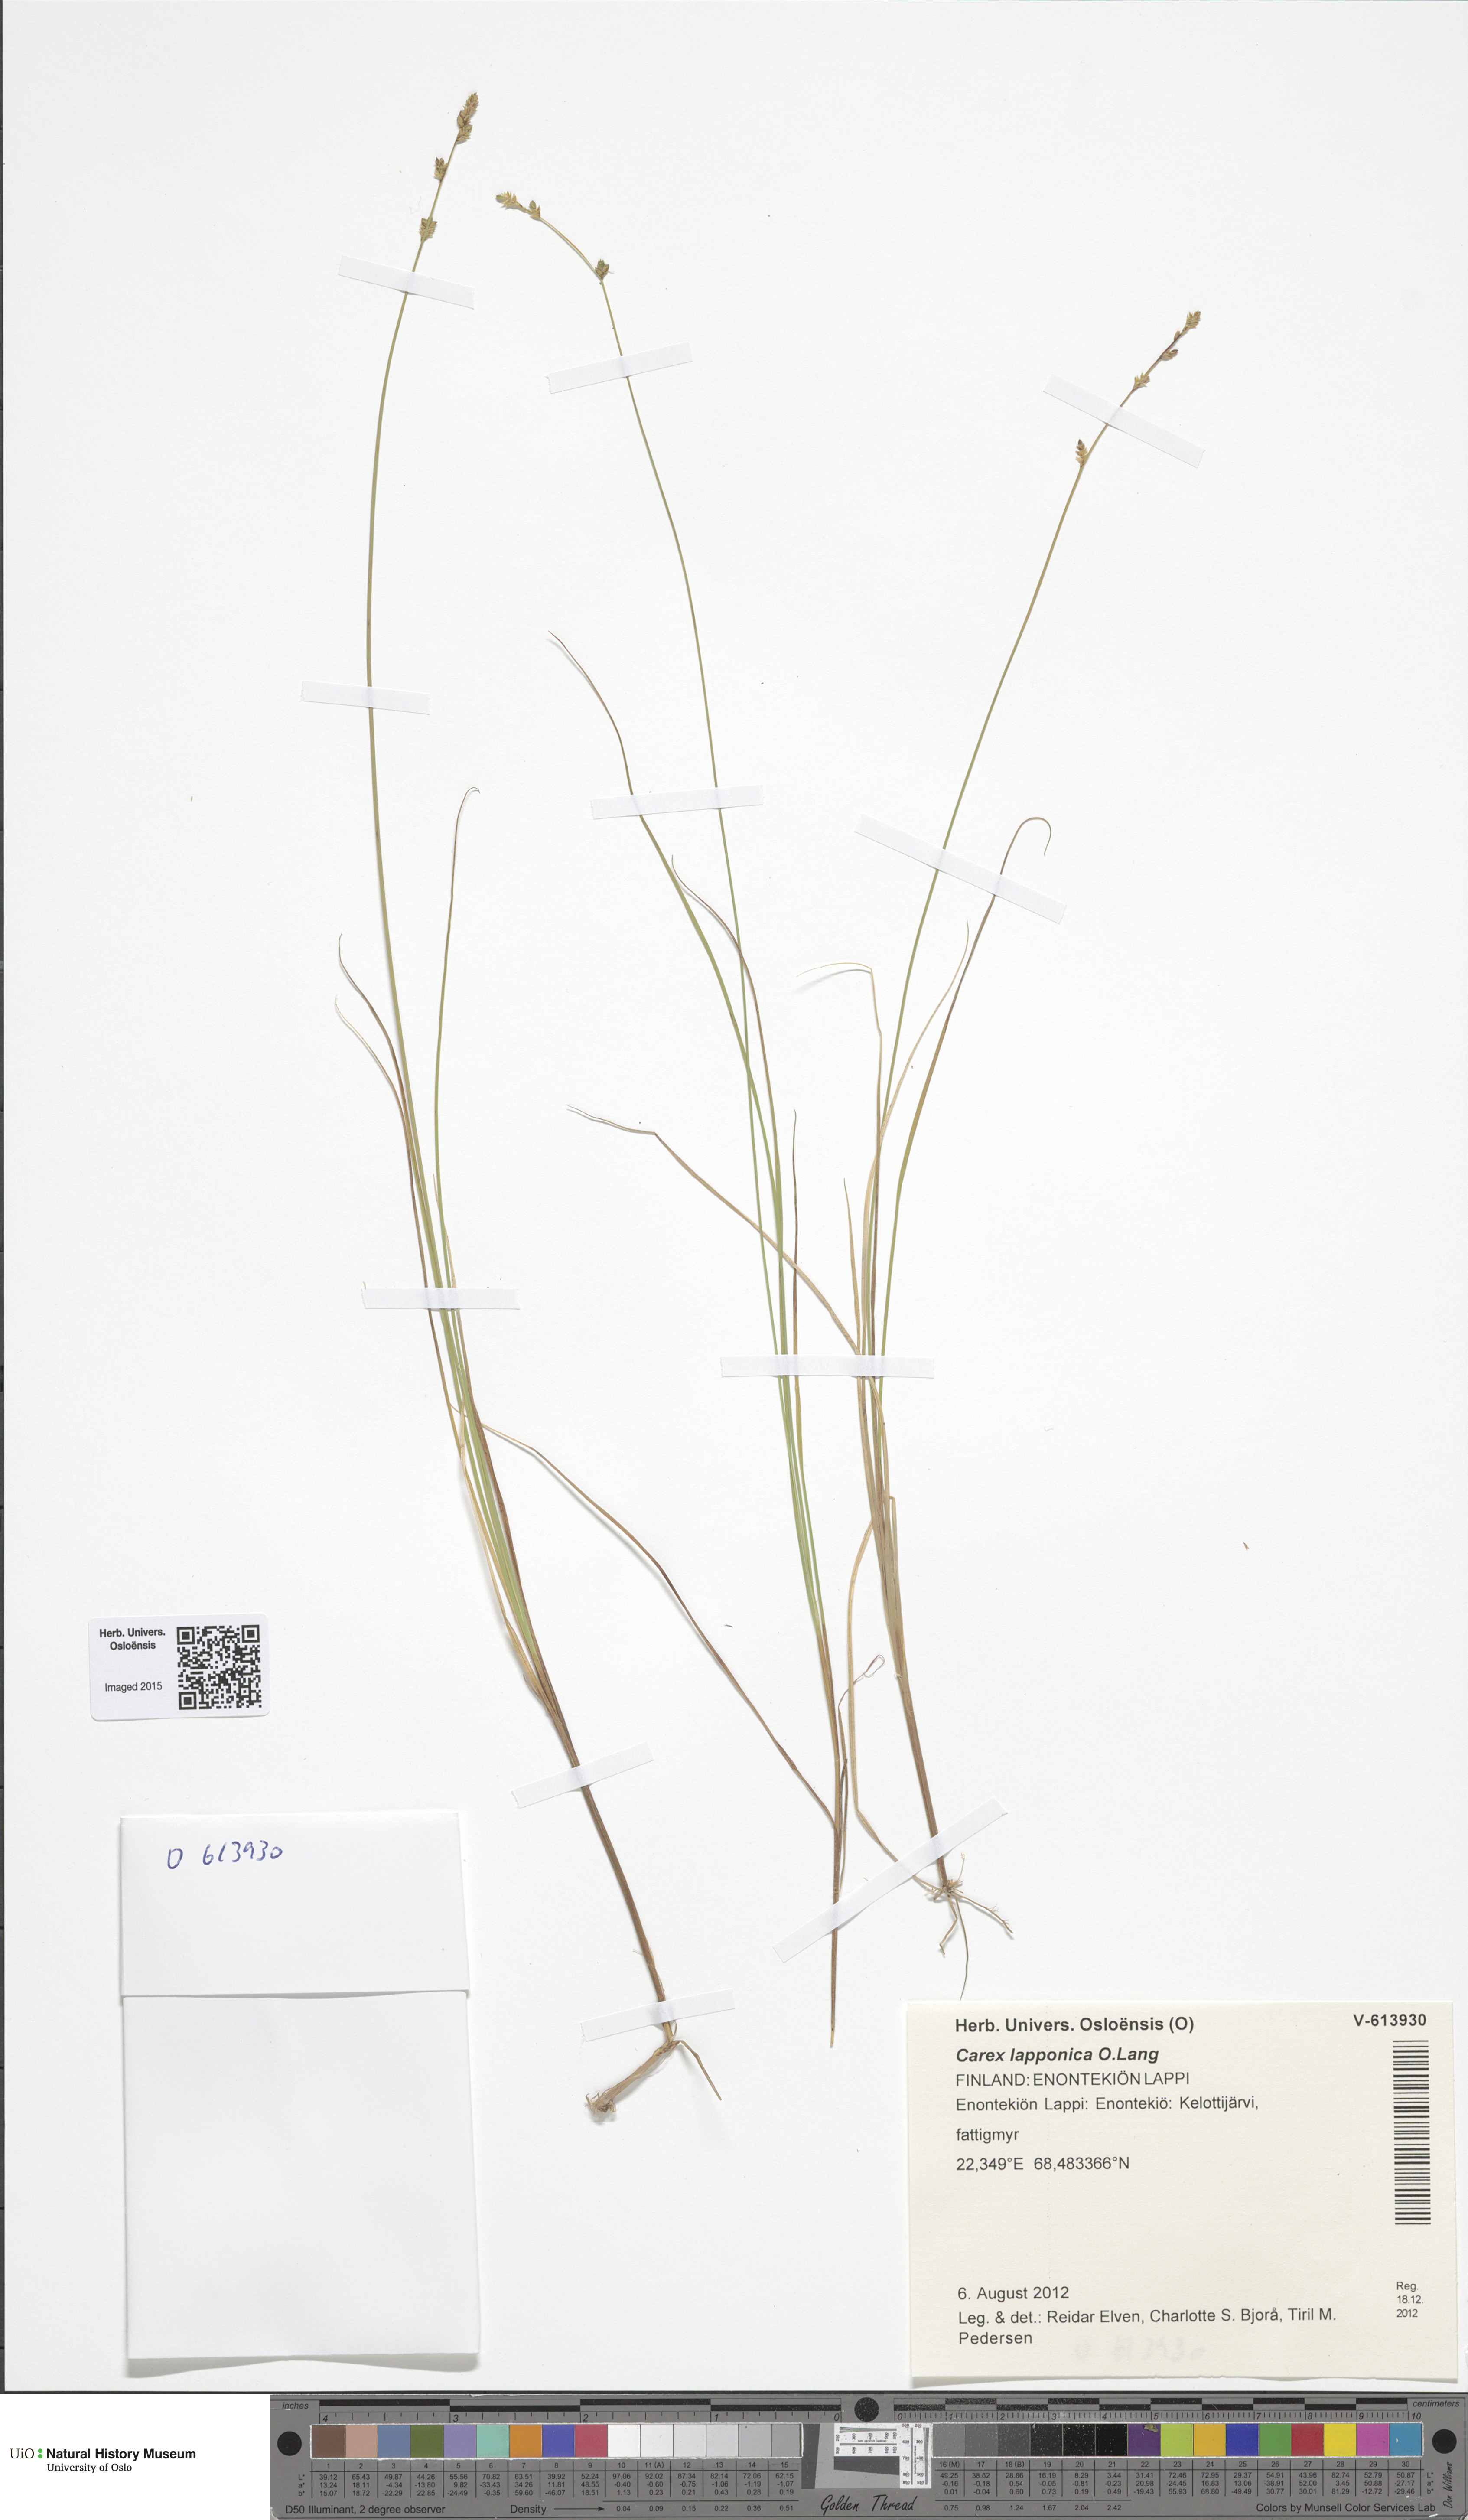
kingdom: Plantae
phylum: Tracheophyta
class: Liliopsida
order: Poales
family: Cyperaceae
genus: Carex
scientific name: Carex lapponica
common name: Lapland sedge
